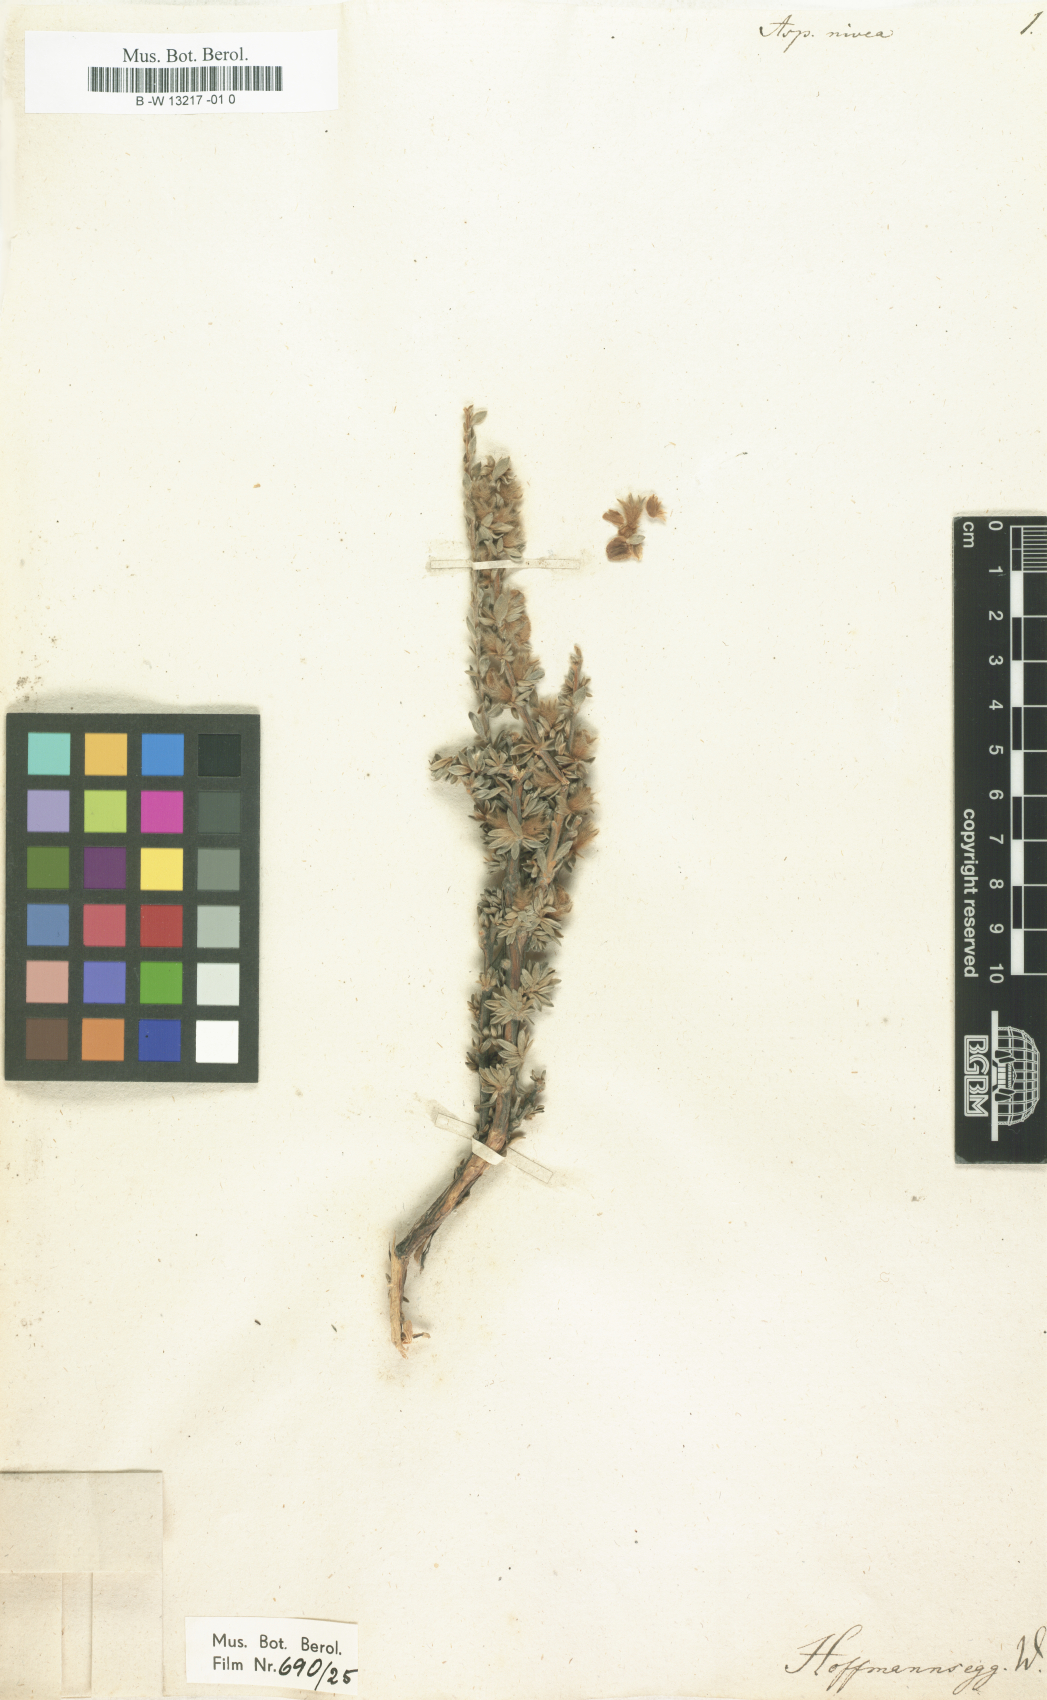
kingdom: Plantae
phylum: Tracheophyta
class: Magnoliopsida
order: Fabales
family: Fabaceae
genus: Aspalathus
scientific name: Aspalathus nivea
